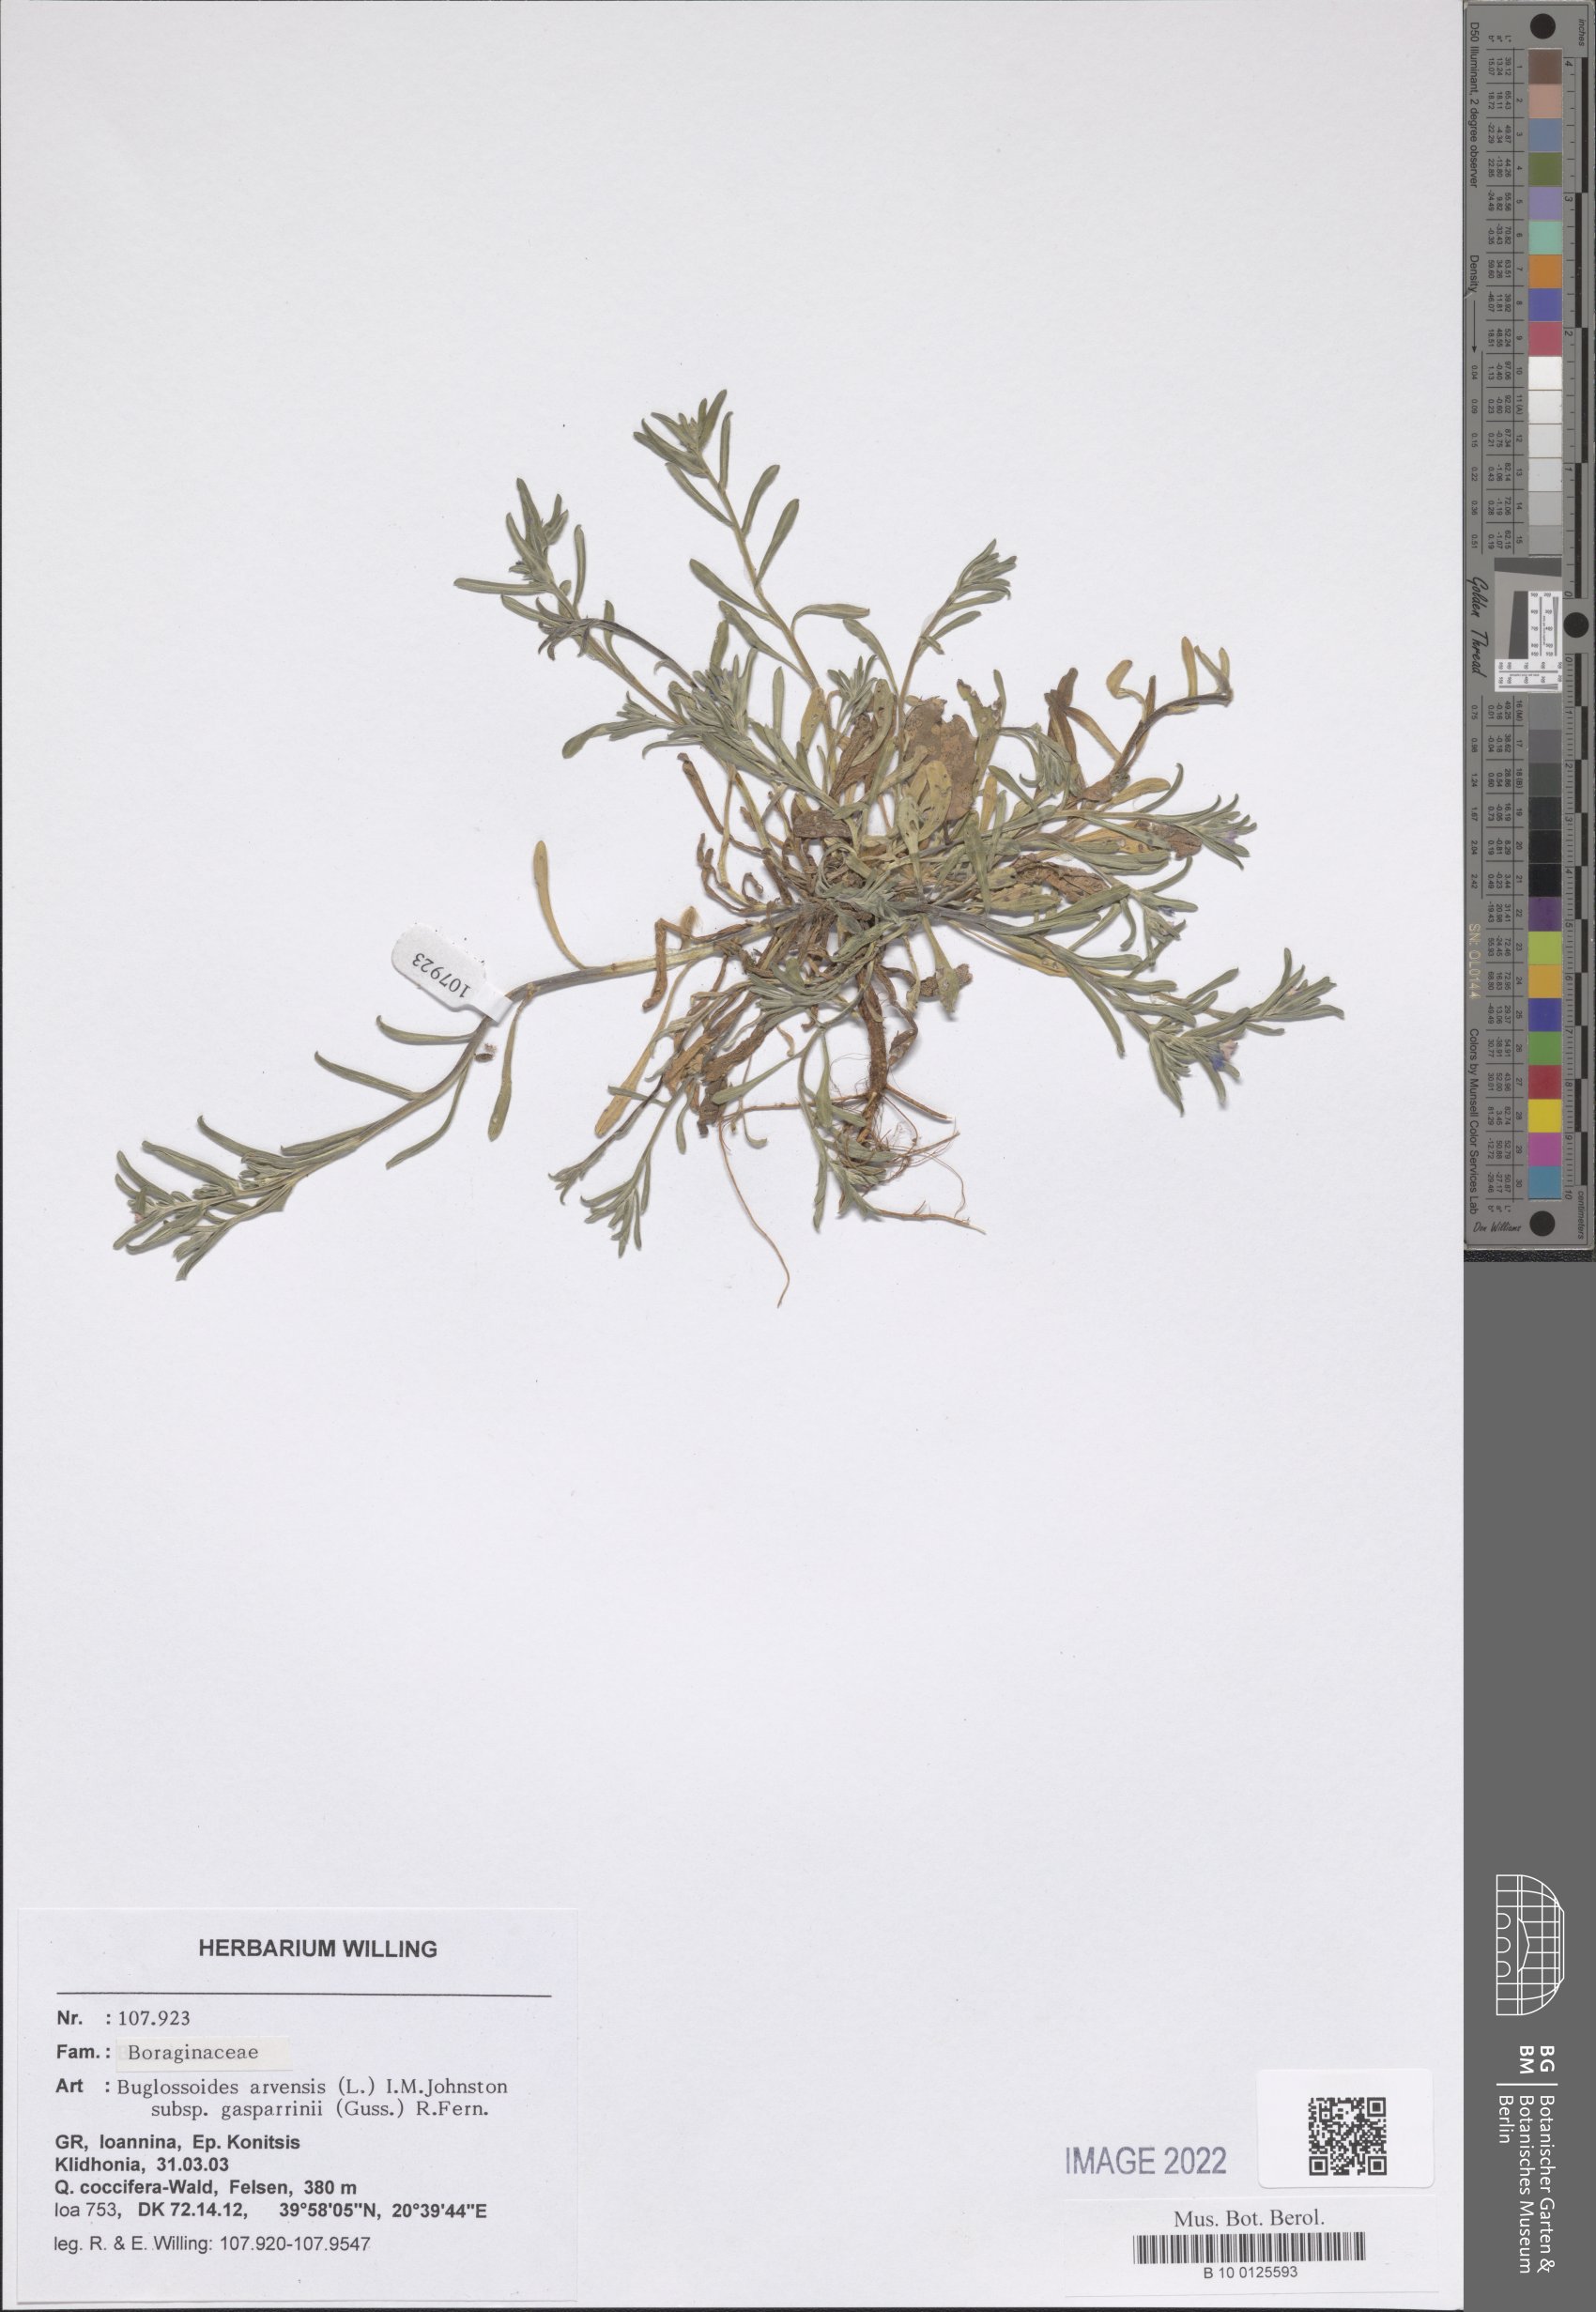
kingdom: Plantae
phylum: Tracheophyta
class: Magnoliopsida
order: Boraginales
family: Boraginaceae
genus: Buglossoides
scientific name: Buglossoides incrassata
